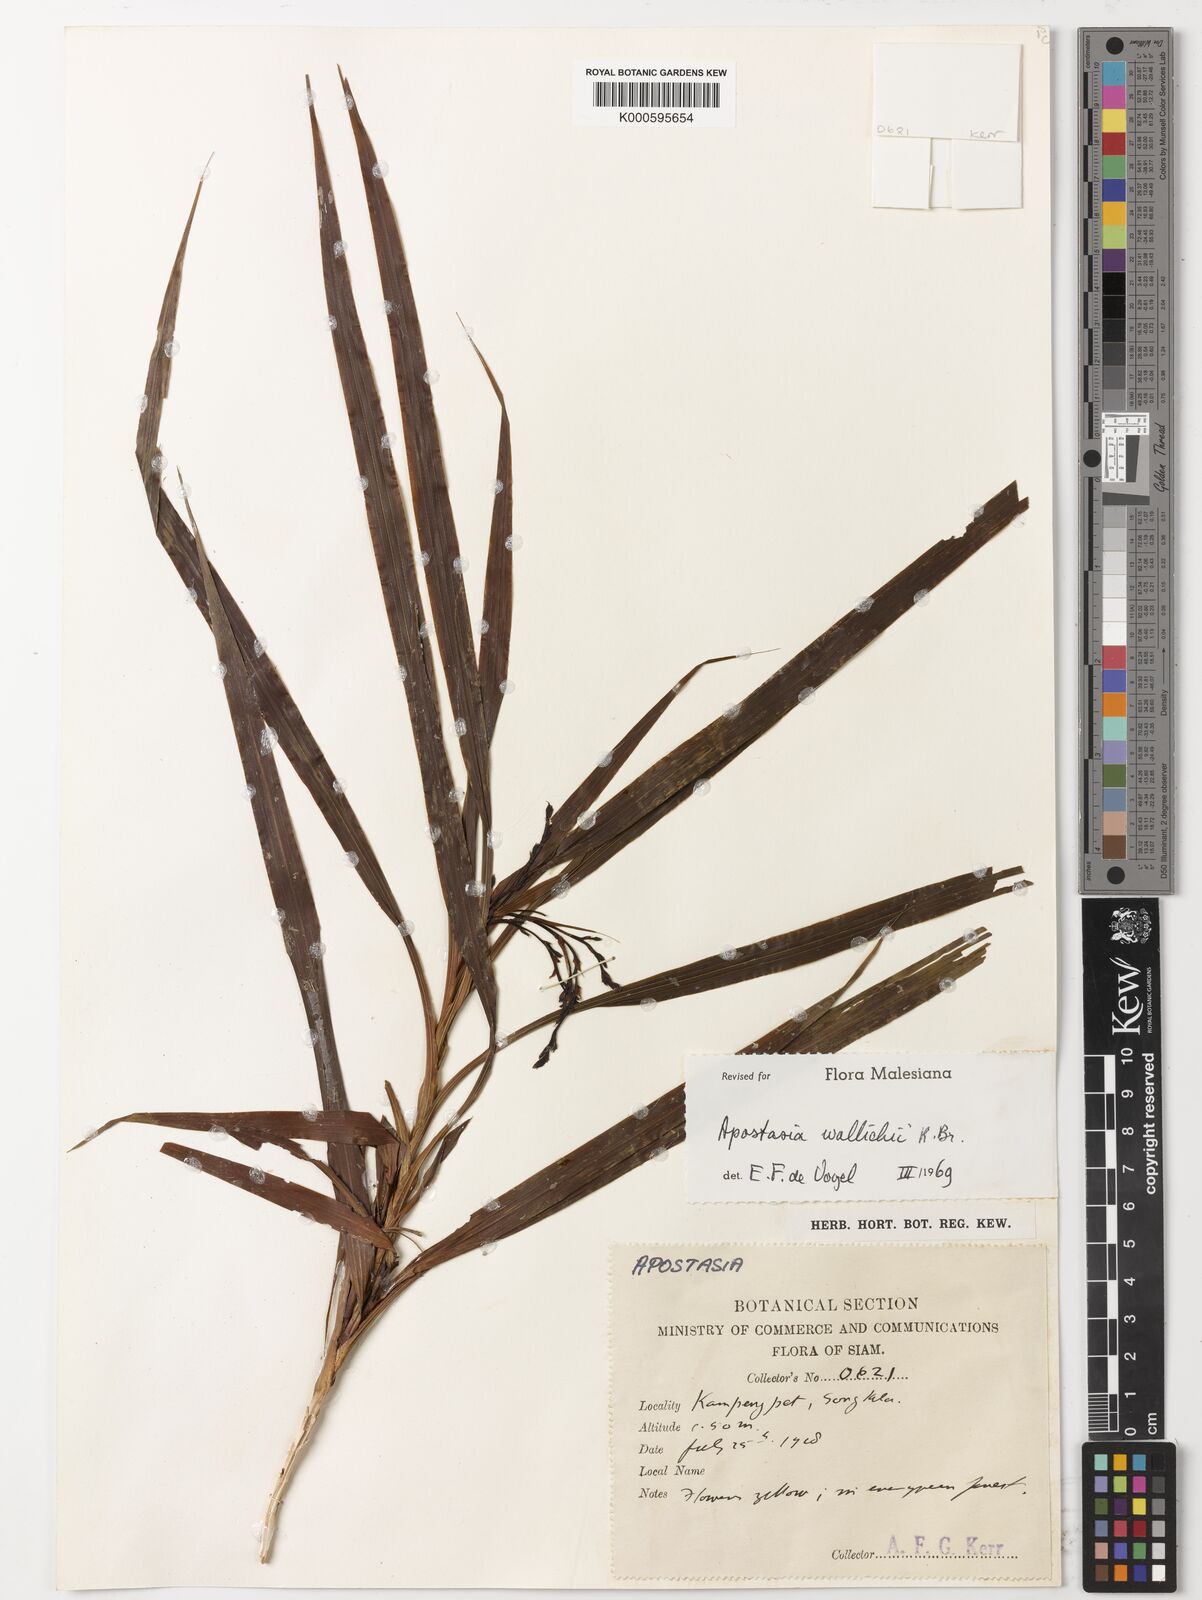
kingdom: Plantae
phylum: Tracheophyta
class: Liliopsida
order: Asparagales
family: Orchidaceae
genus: Apostasia
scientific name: Apostasia wallichii
